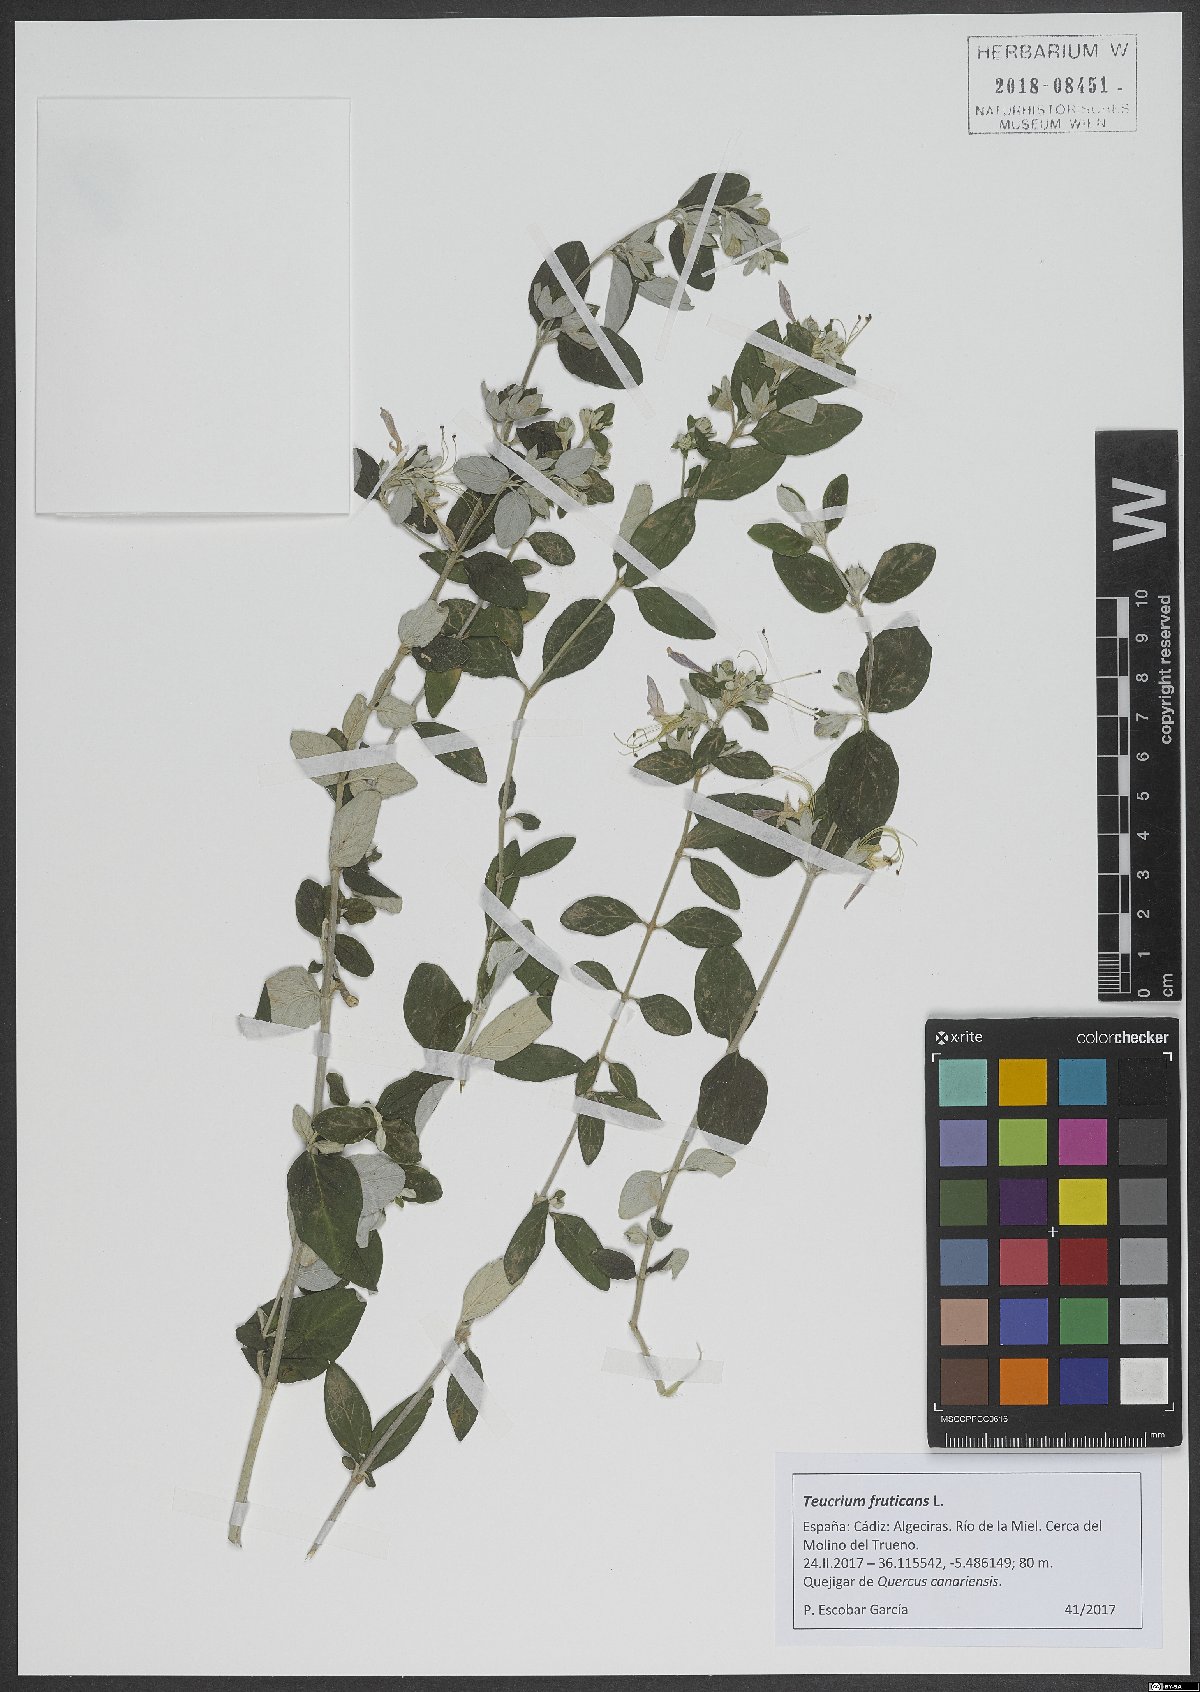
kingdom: Plantae
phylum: Tracheophyta
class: Magnoliopsida
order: Lamiales
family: Lamiaceae
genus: Teucrium
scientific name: Teucrium fruticans
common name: Shrubby germander
